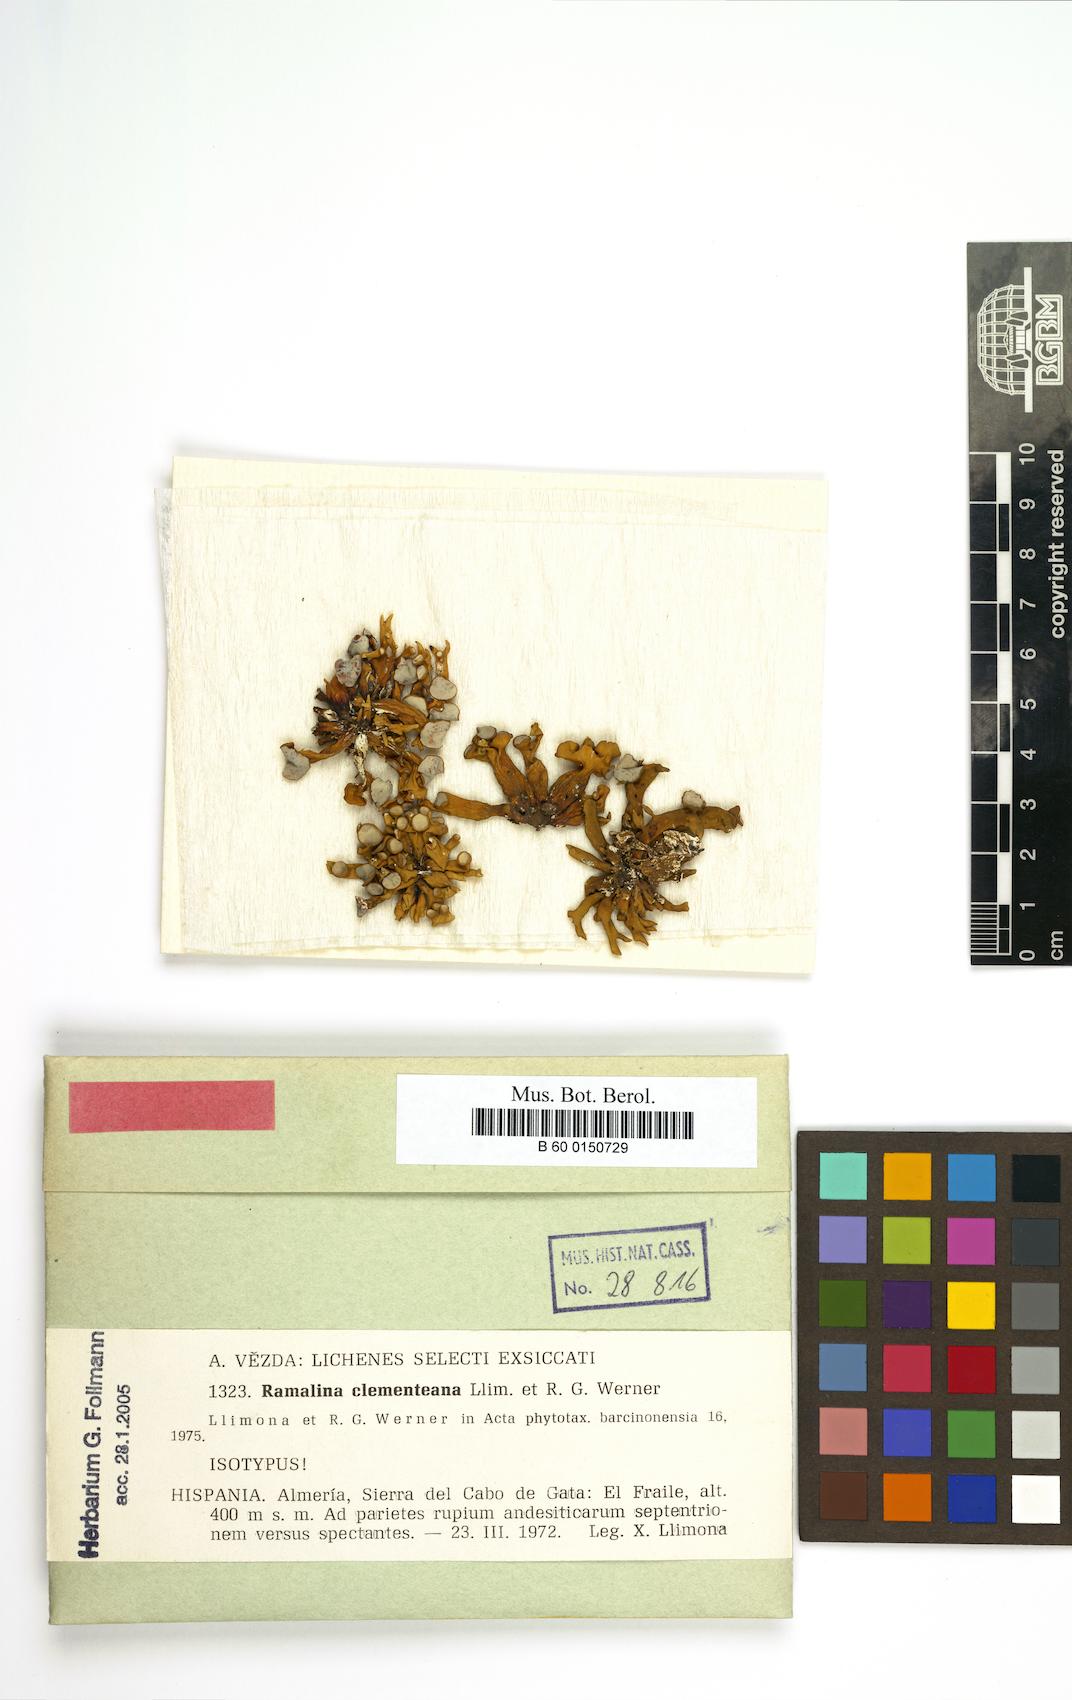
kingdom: Fungi
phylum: Ascomycota
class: Lecanoromycetes
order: Lecanorales
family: Ramalinaceae
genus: Ramalina
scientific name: Ramalina clementeana
